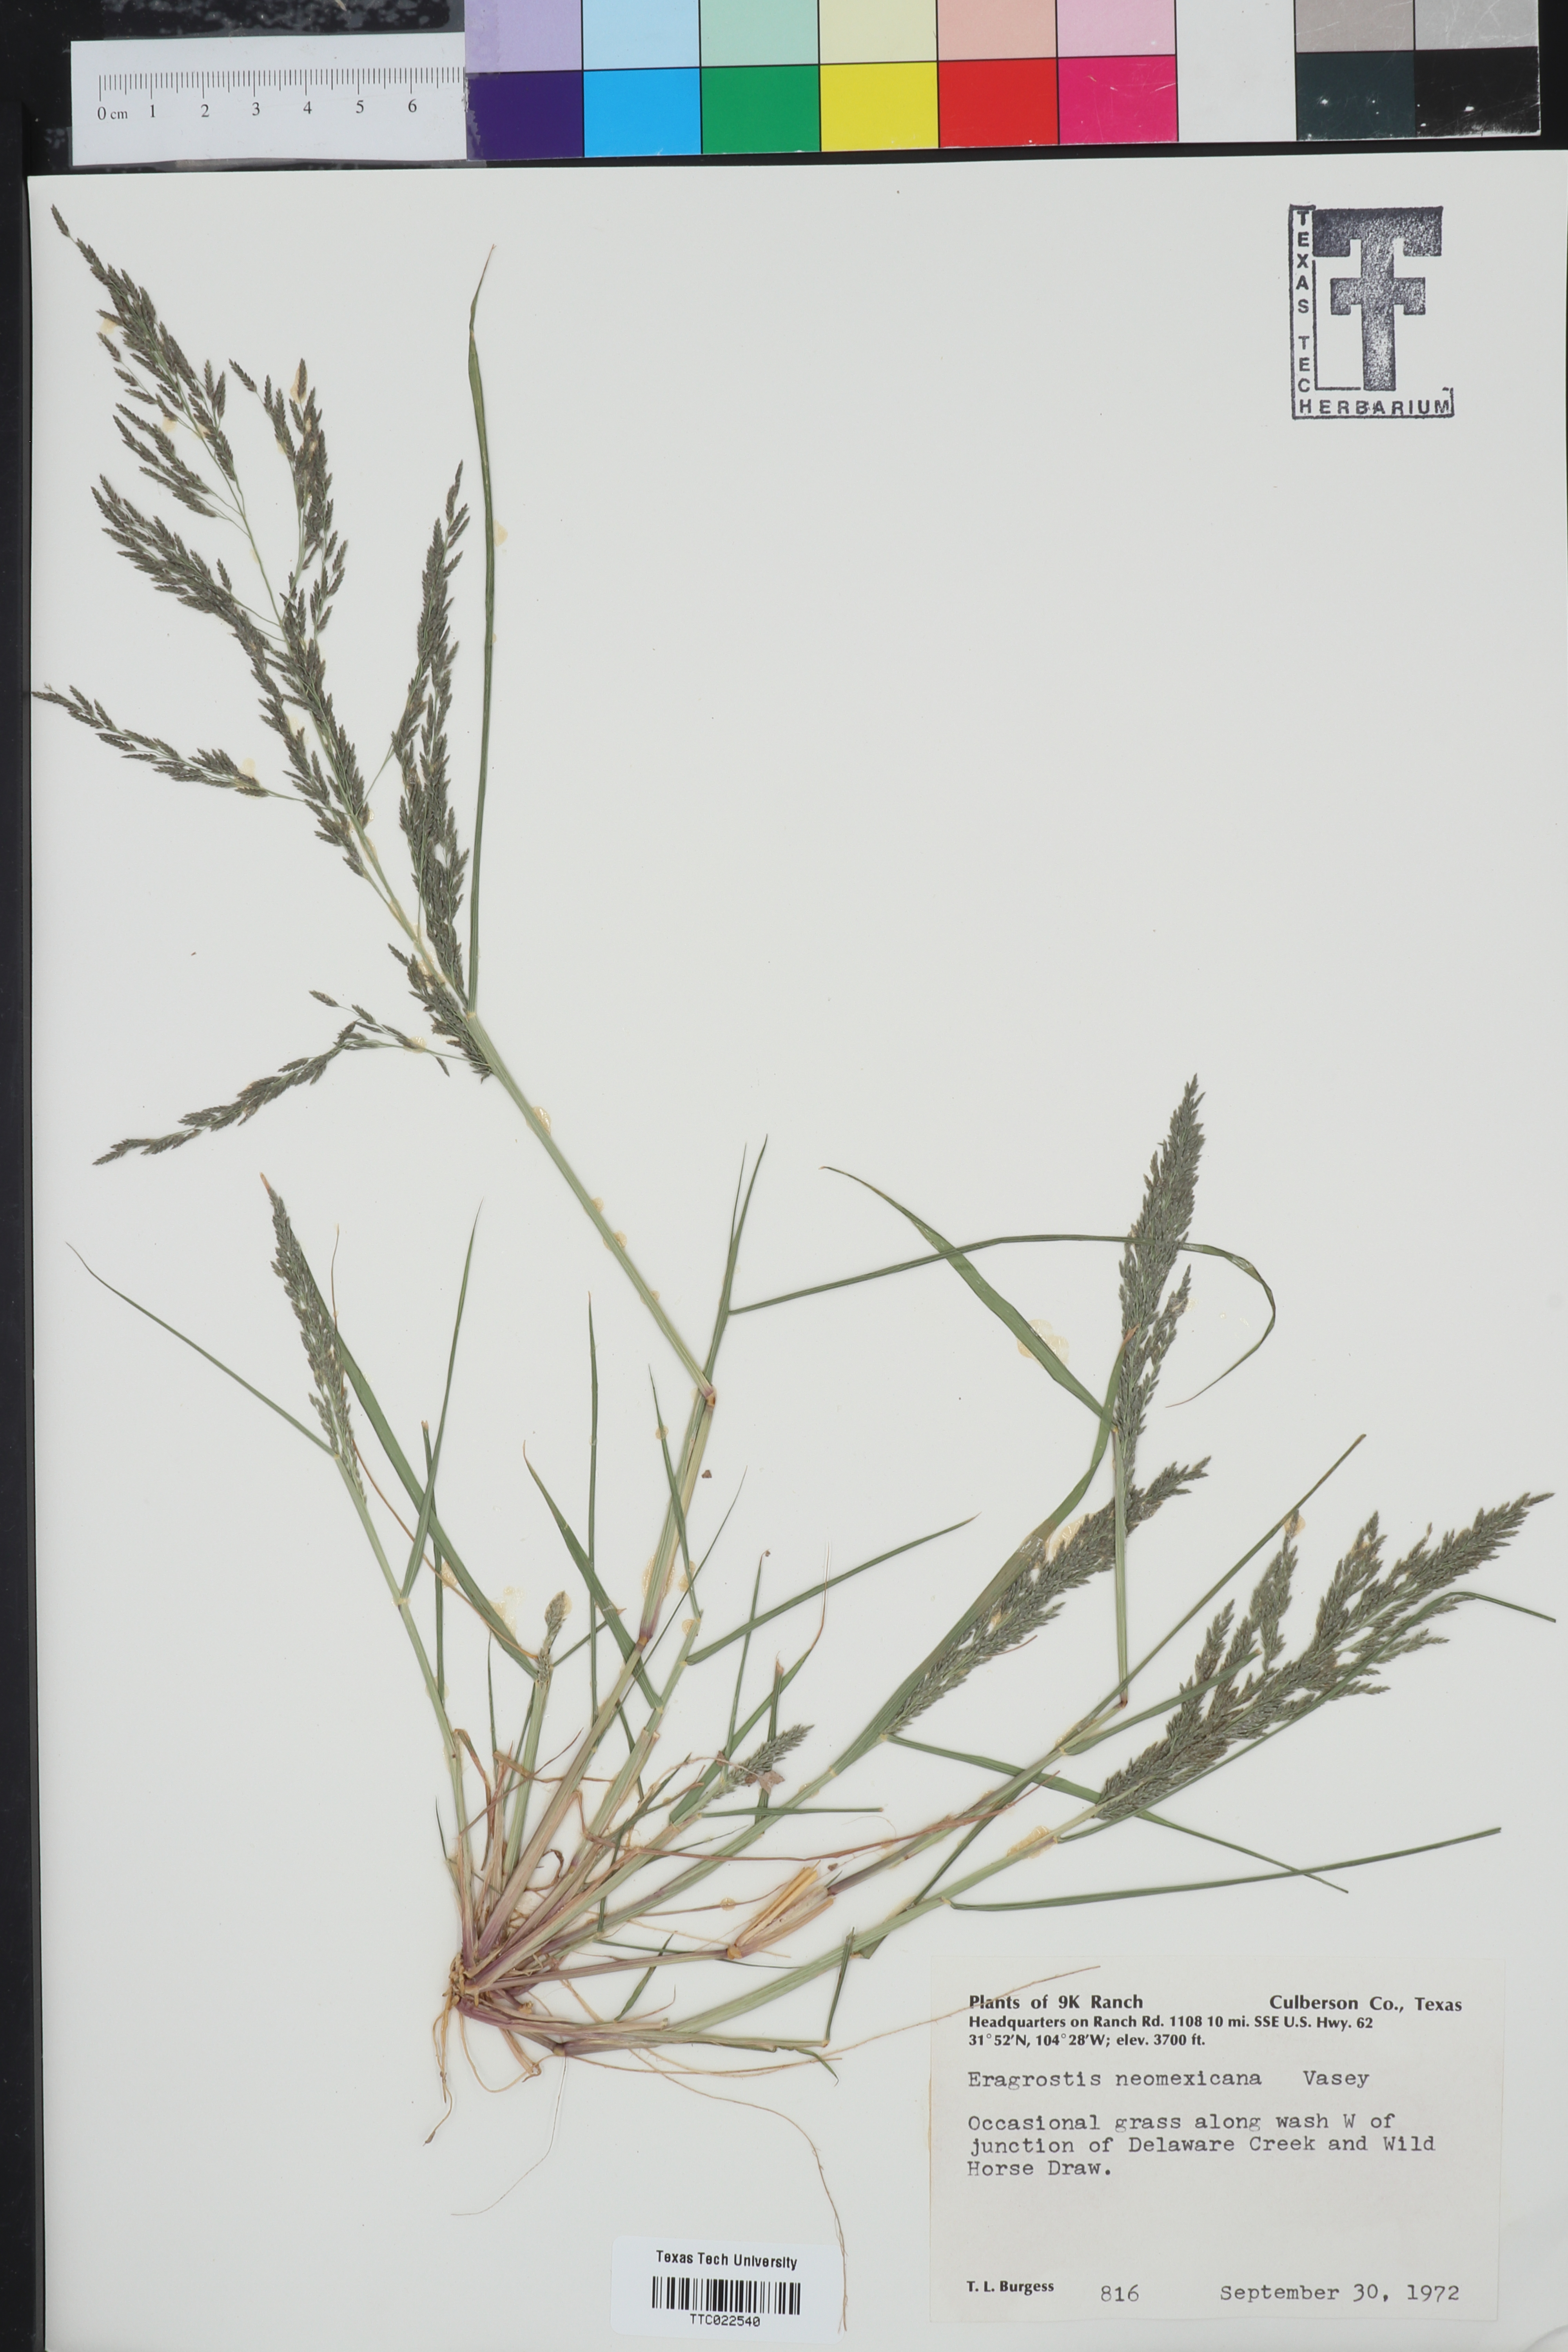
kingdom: Plantae
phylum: Tracheophyta
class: Liliopsida
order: Poales
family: Poaceae
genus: Eragrostis
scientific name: Eragrostis mexicana
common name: Mexican love grass
